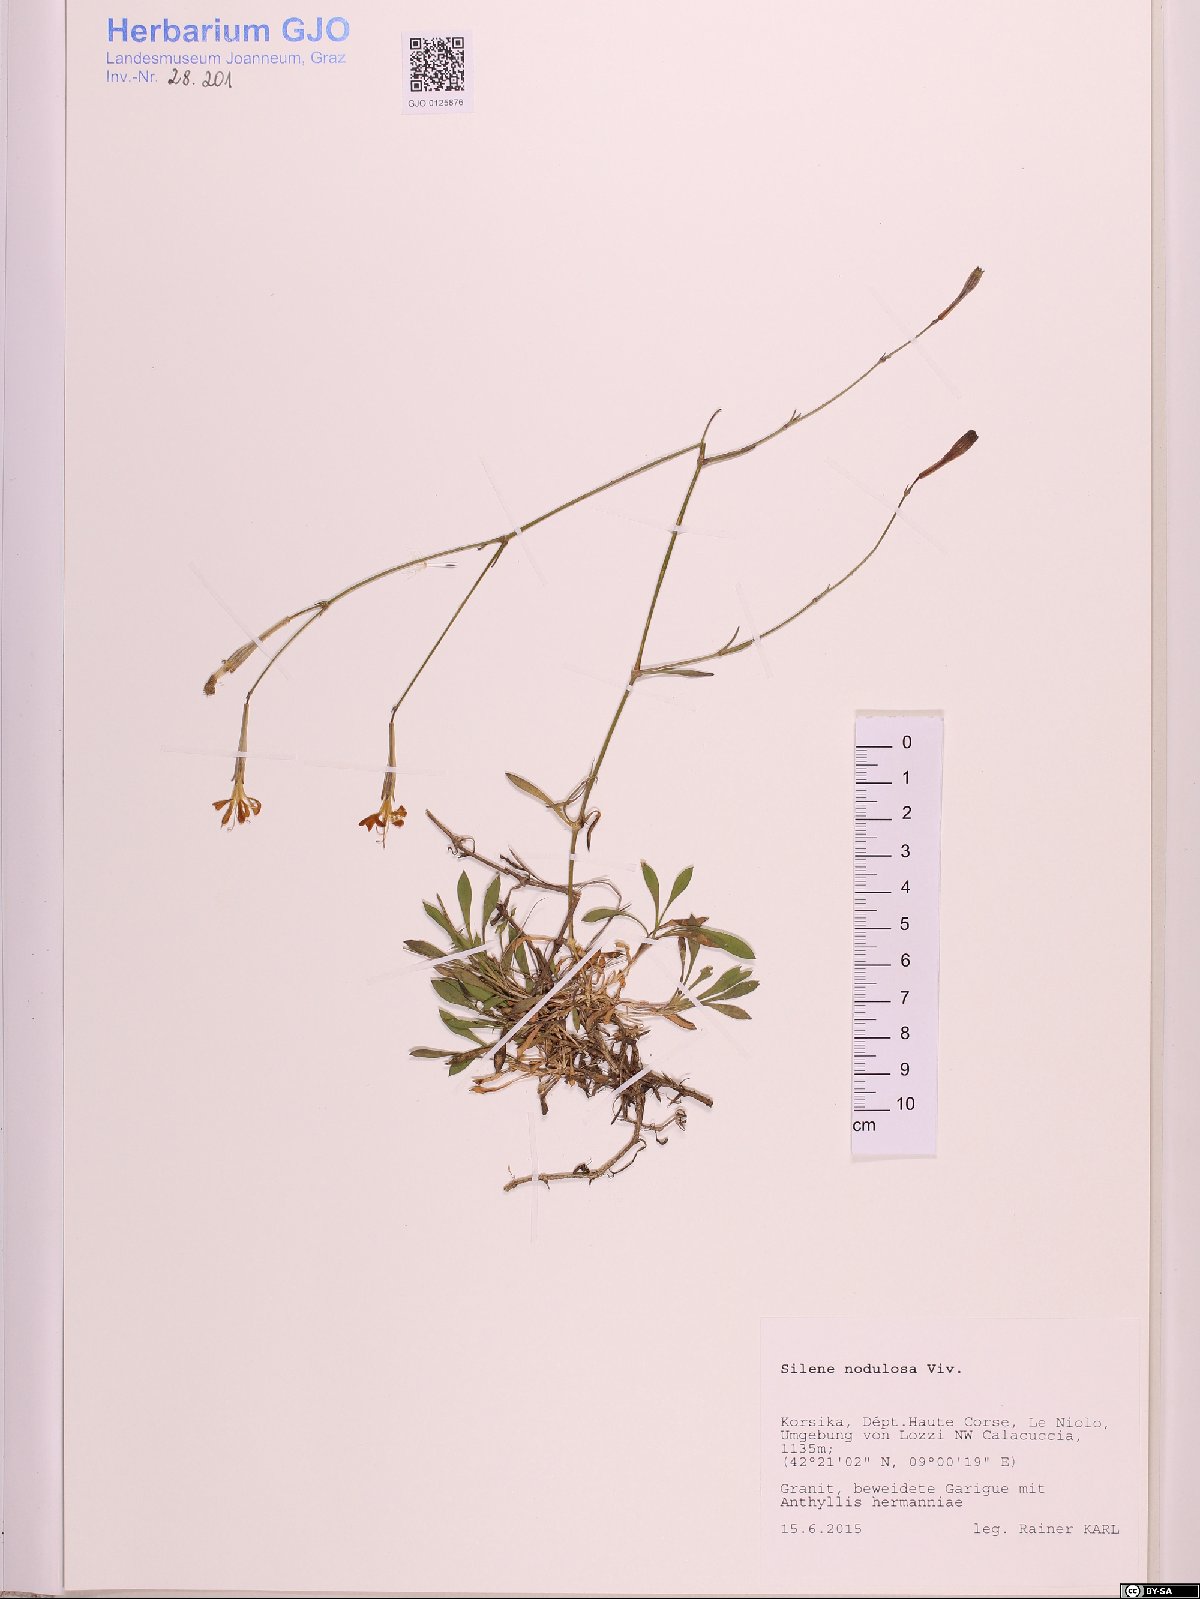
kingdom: Plantae
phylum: Tracheophyta
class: Magnoliopsida
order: Caryophyllales
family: Caryophyllaceae
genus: Silene
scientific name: Silene nodulosa
